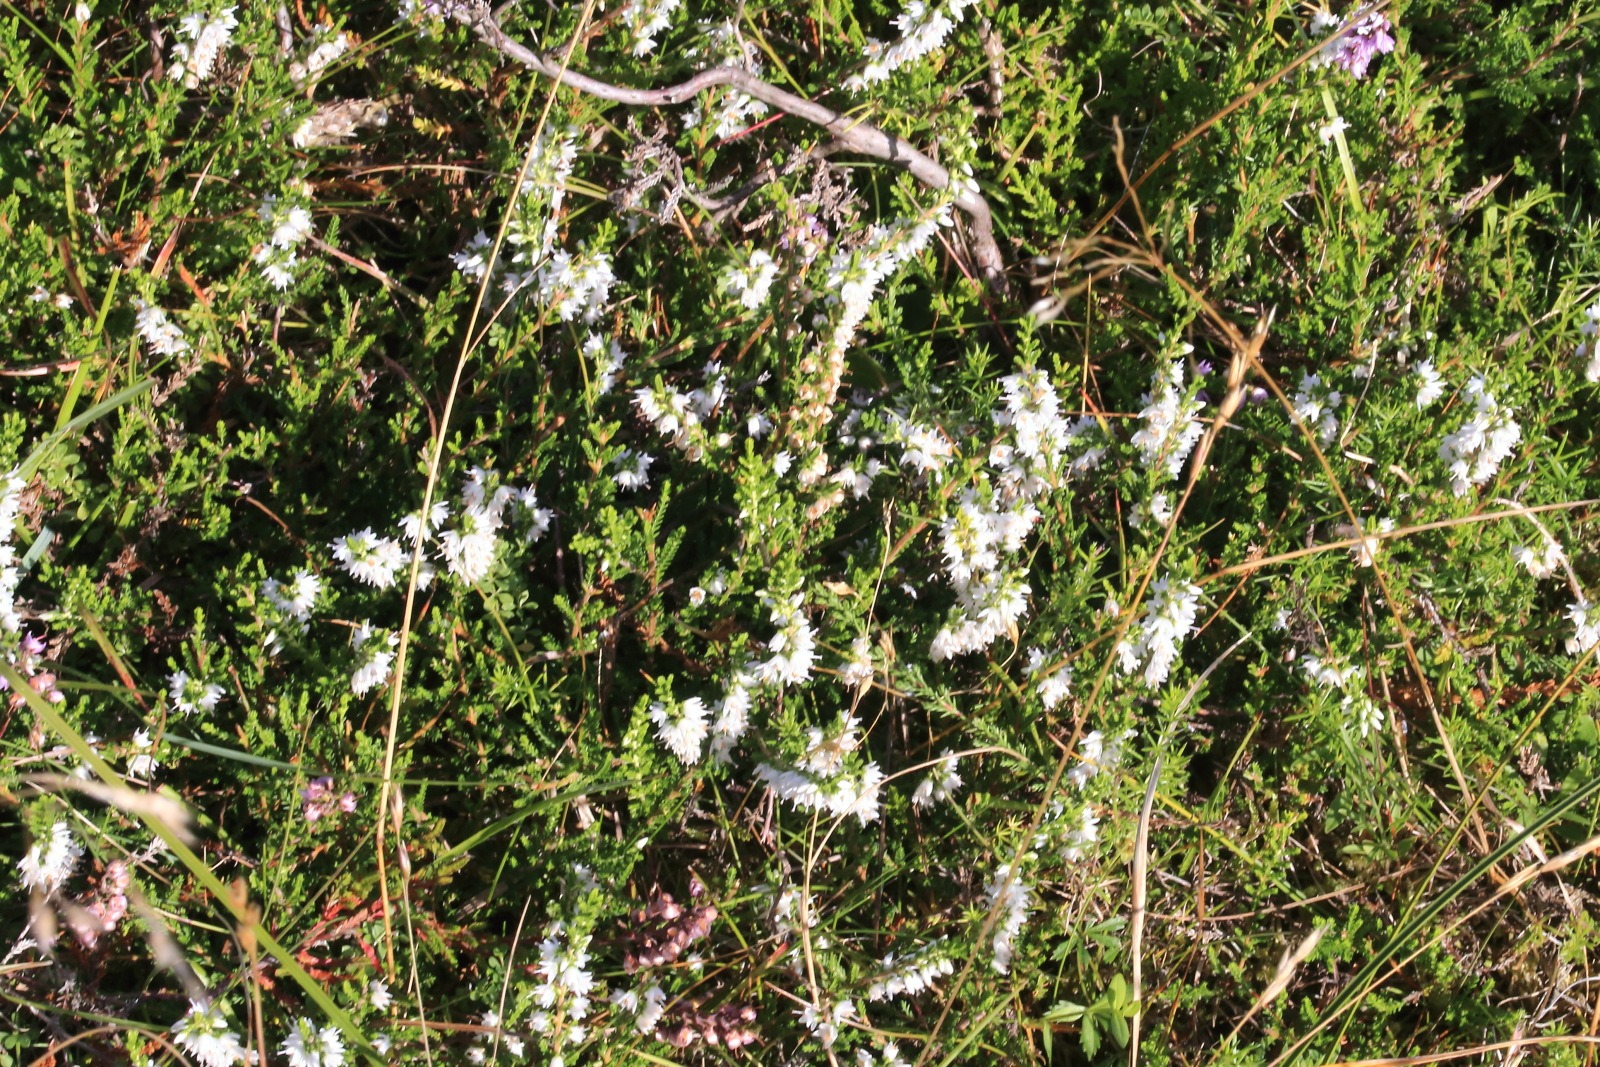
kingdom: Plantae
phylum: Tracheophyta
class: Magnoliopsida
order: Ericales
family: Ericaceae
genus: Calluna
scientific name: Calluna vulgaris
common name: Hedelyng
